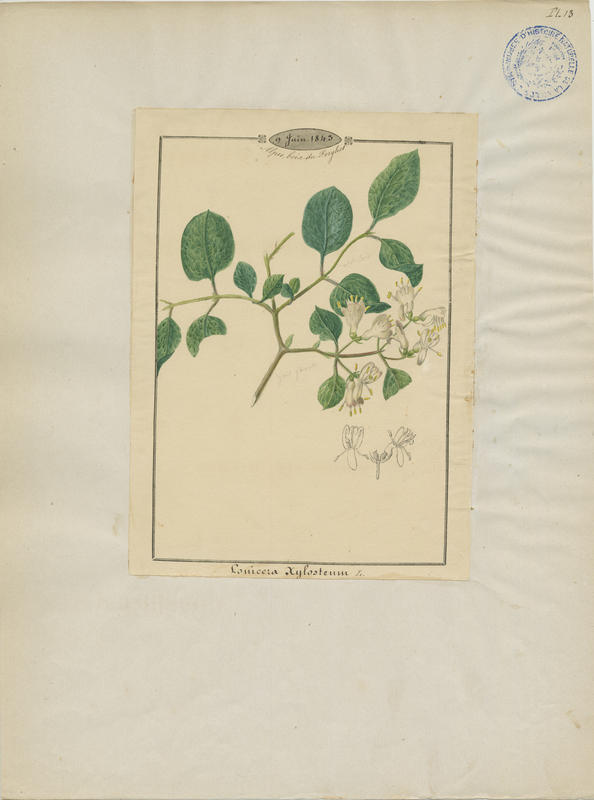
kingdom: Plantae
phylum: Tracheophyta
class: Magnoliopsida
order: Dipsacales
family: Caprifoliaceae
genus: Lonicera
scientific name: Lonicera xylosteum
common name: Fly honeysuckle
